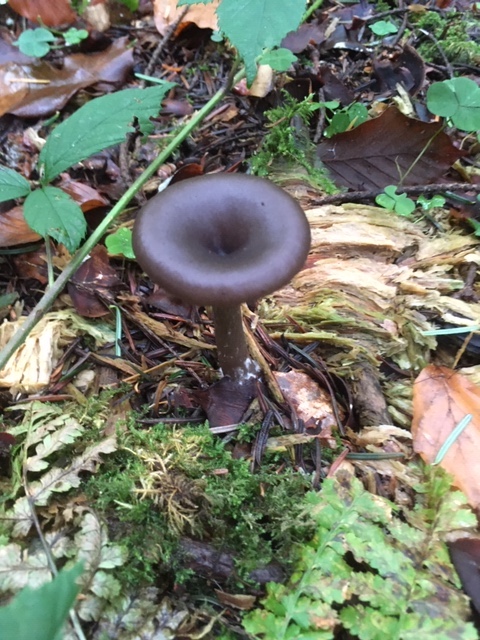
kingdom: Fungi
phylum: Basidiomycota
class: Agaricomycetes
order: Agaricales
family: Pseudoclitocybaceae
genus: Pseudoclitocybe
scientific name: Pseudoclitocybe cyathiformis
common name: almindelig bægertragthat
